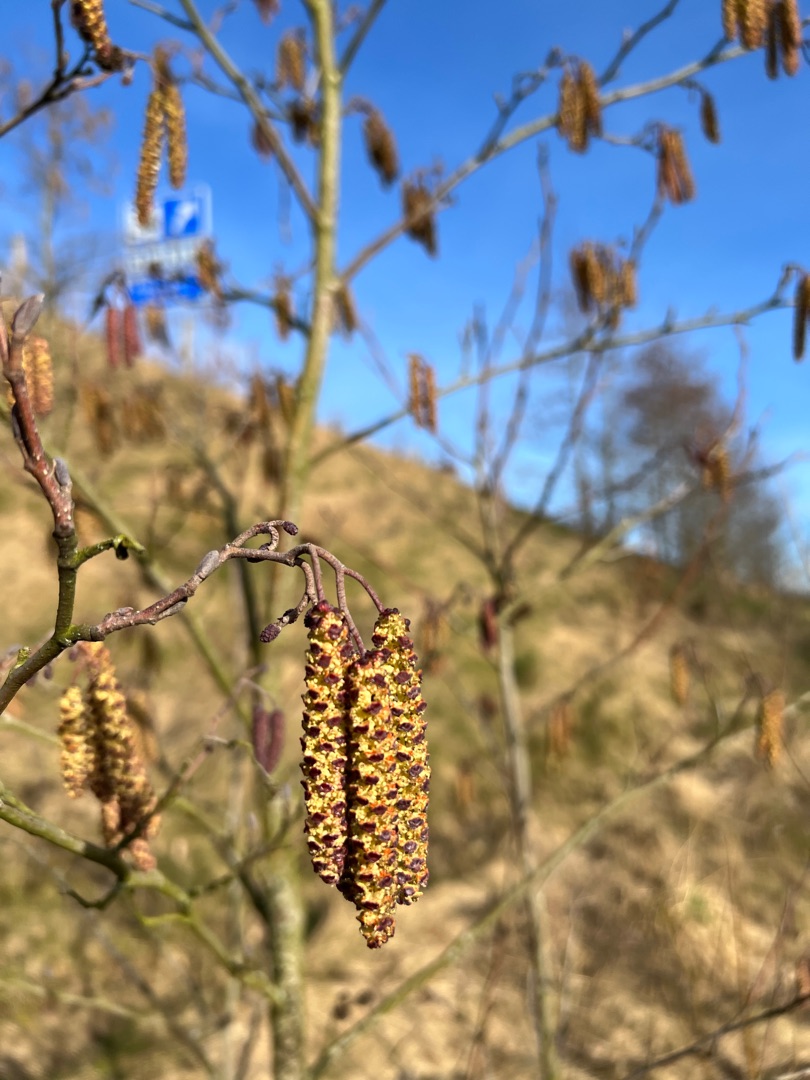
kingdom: Plantae
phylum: Tracheophyta
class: Magnoliopsida
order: Fagales
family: Betulaceae
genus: Alnus
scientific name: Alnus glutinosa
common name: Rød-el
